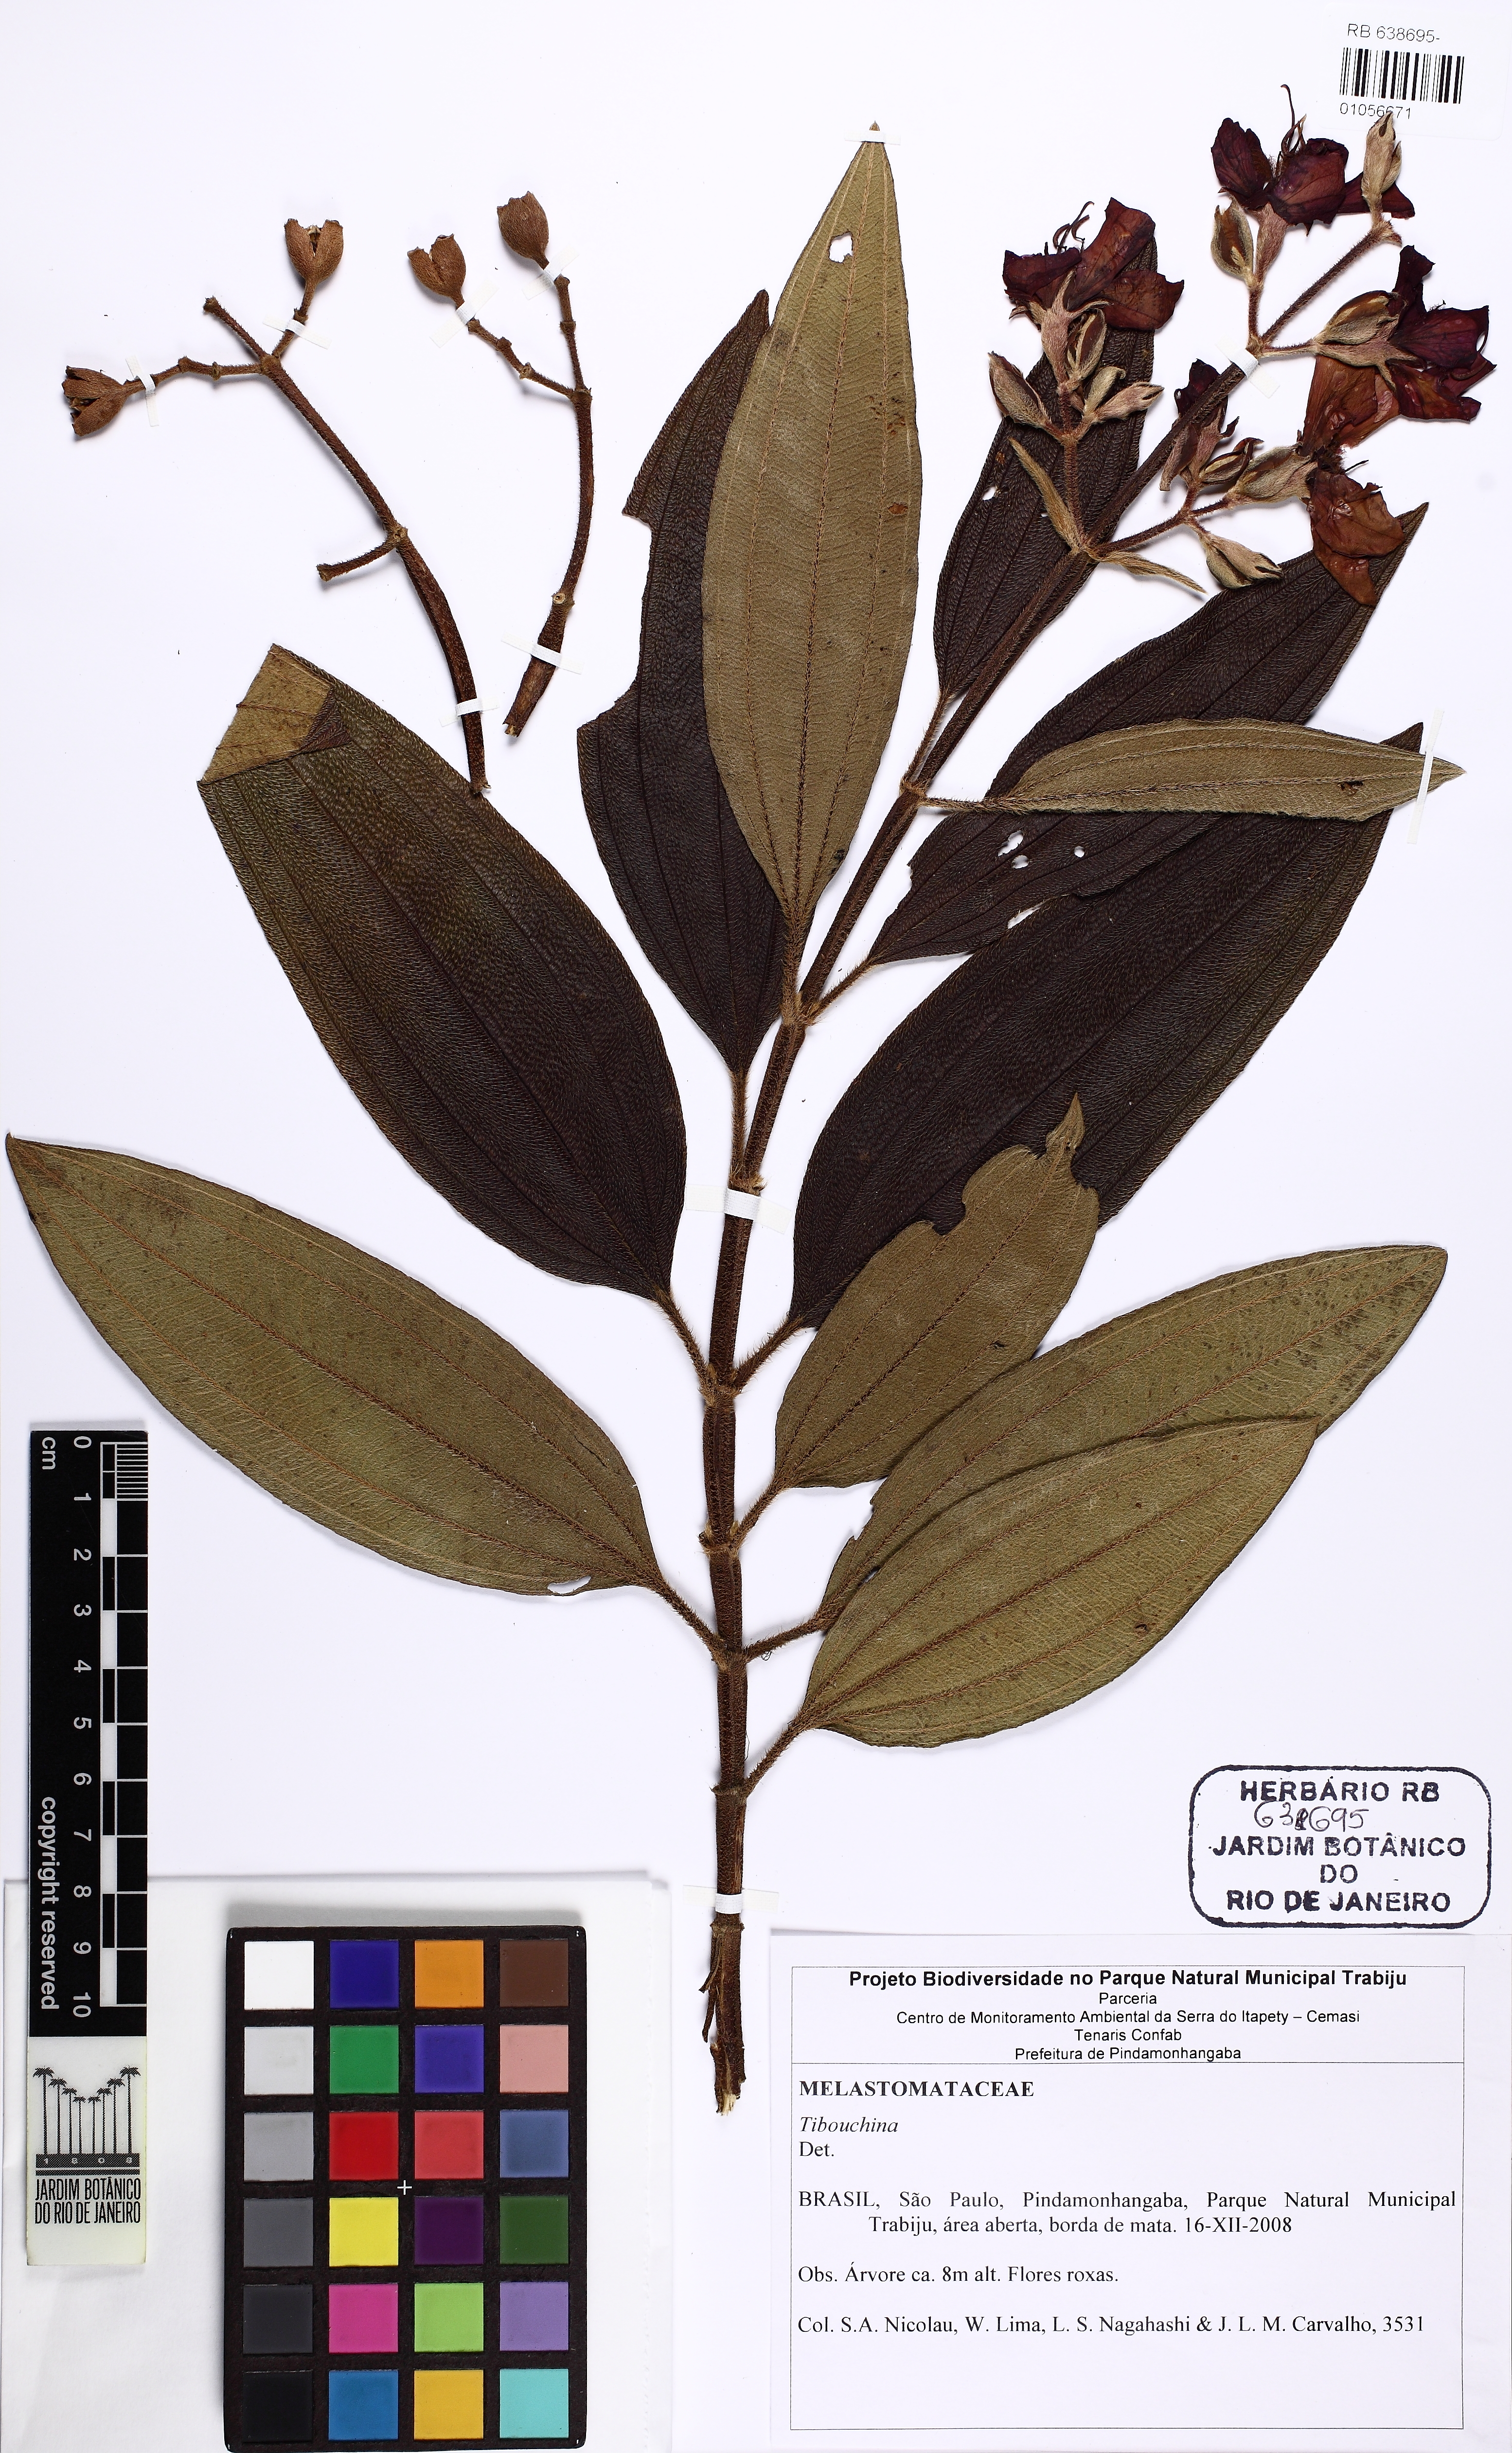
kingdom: Plantae
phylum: Tracheophyta
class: Magnoliopsida
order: Myrtales
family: Melastomataceae
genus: Pleroma
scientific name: Pleroma granulosum
